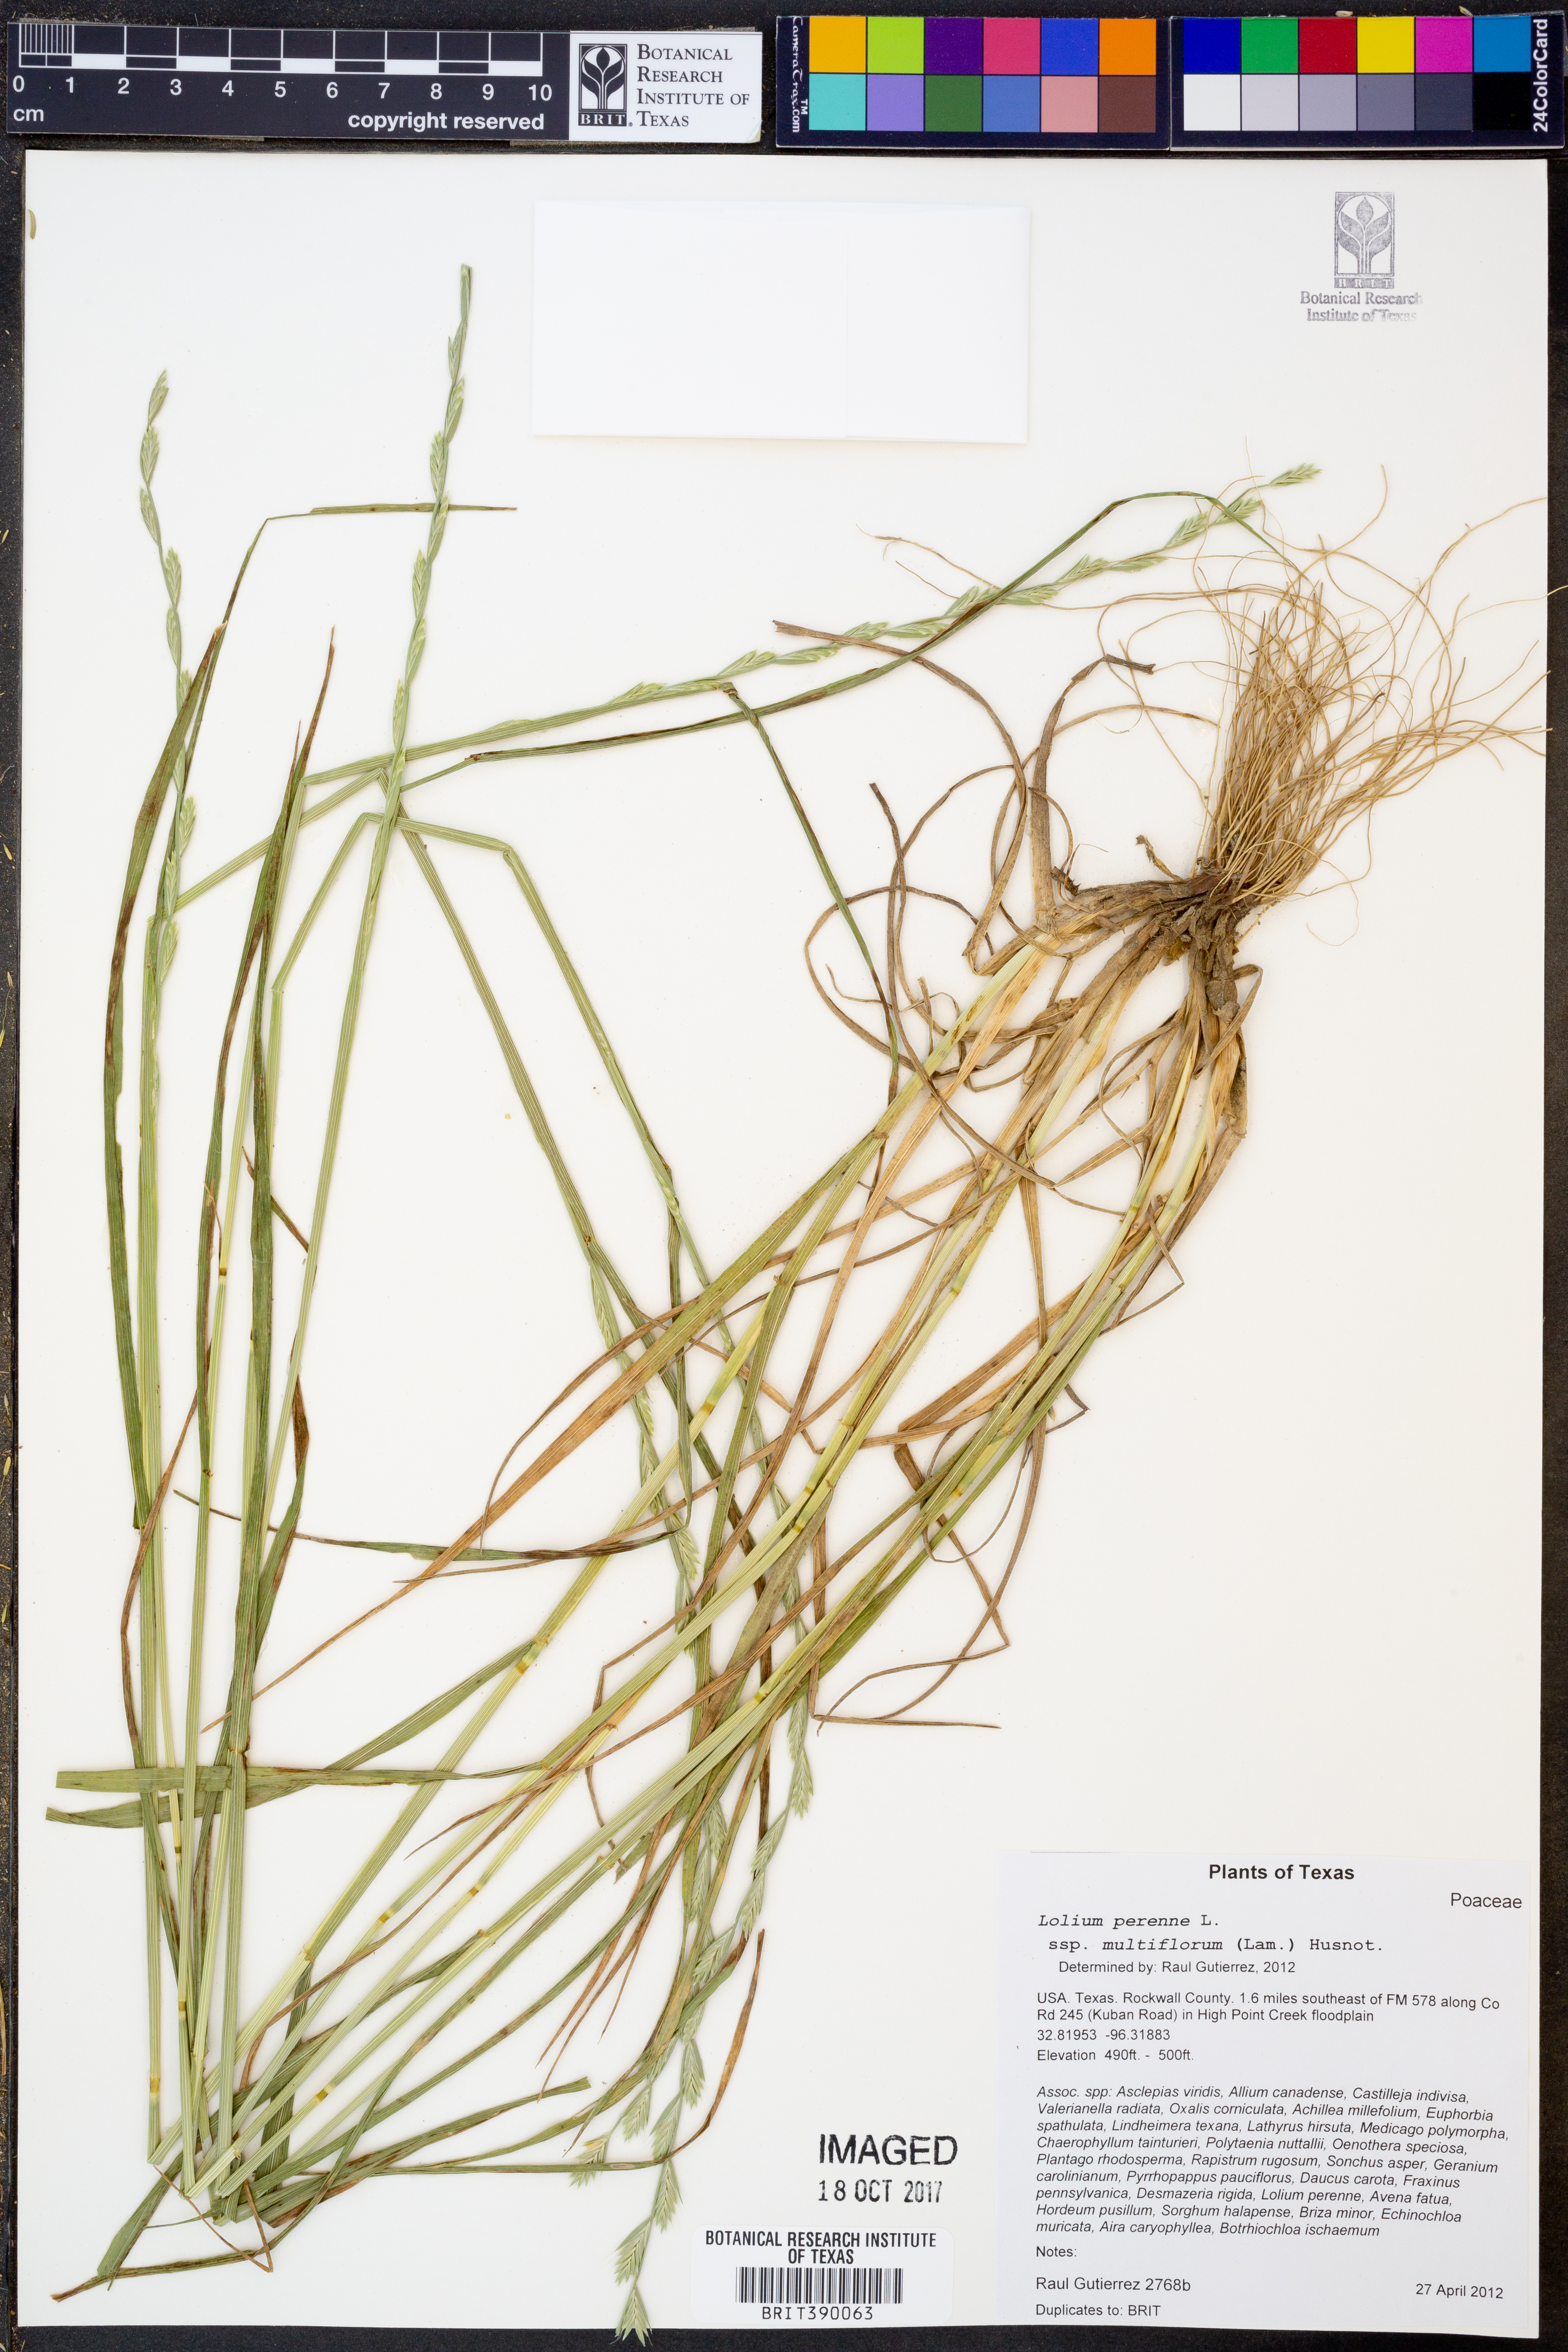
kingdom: Plantae
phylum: Tracheophyta
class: Liliopsida
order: Poales
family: Poaceae
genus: Lolium
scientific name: Lolium multiflorum
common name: Annual ryegrass
